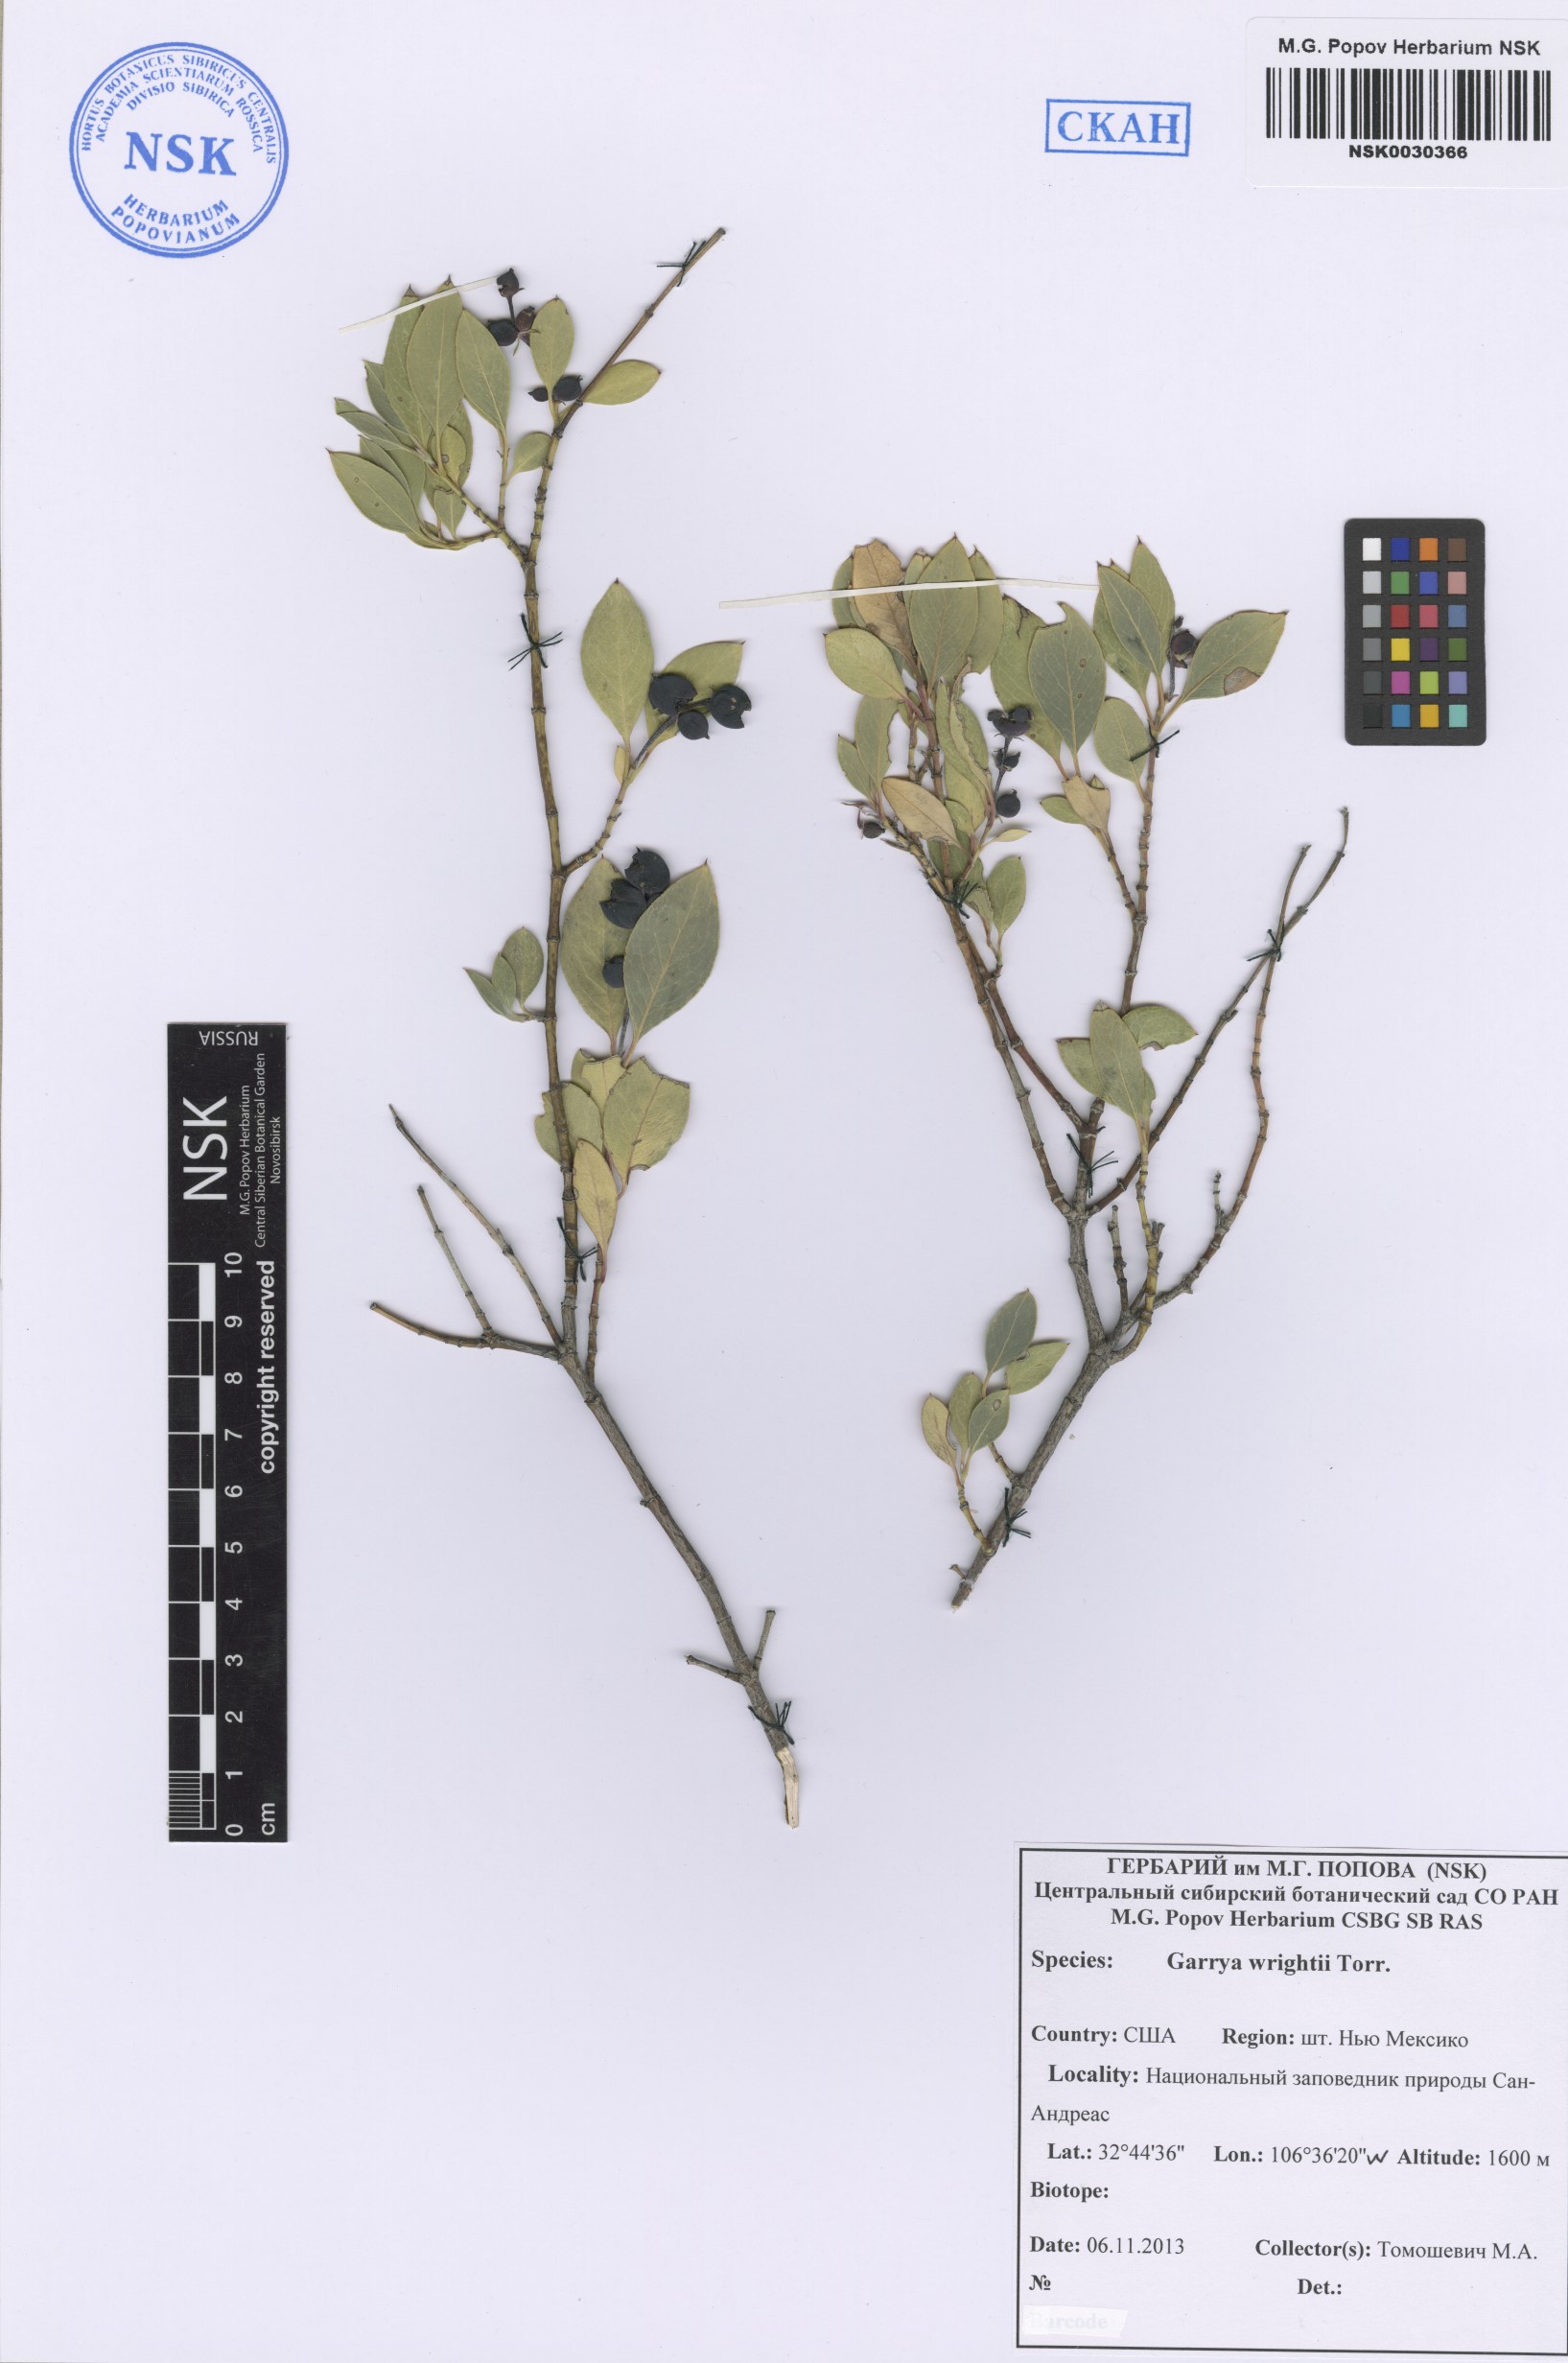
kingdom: Plantae
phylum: Tracheophyta
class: Magnoliopsida
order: Garryales
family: Garryaceae
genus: Garrya
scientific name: Garrya wrightii
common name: Wright's silktassel
